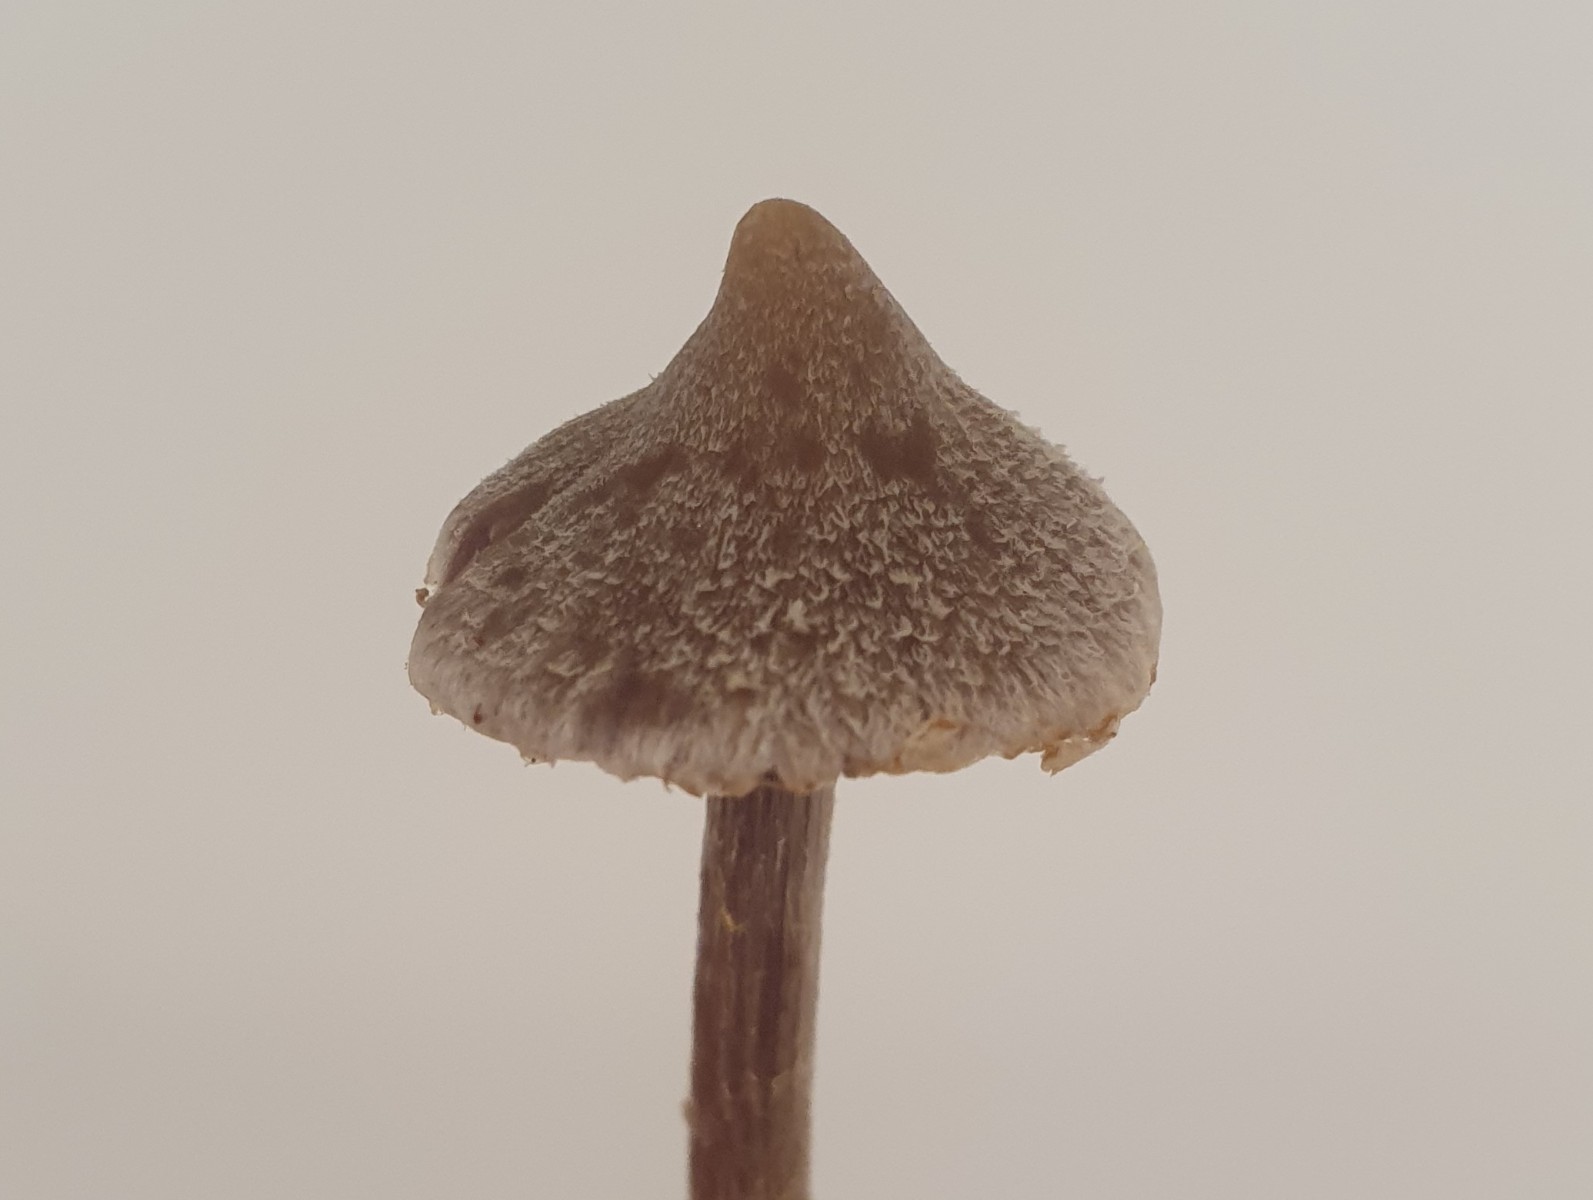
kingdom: Fungi
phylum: Basidiomycota
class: Agaricomycetes
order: Agaricales
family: Cortinariaceae
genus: Cortinarius
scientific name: Cortinarius
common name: pelargonie-slørhat
